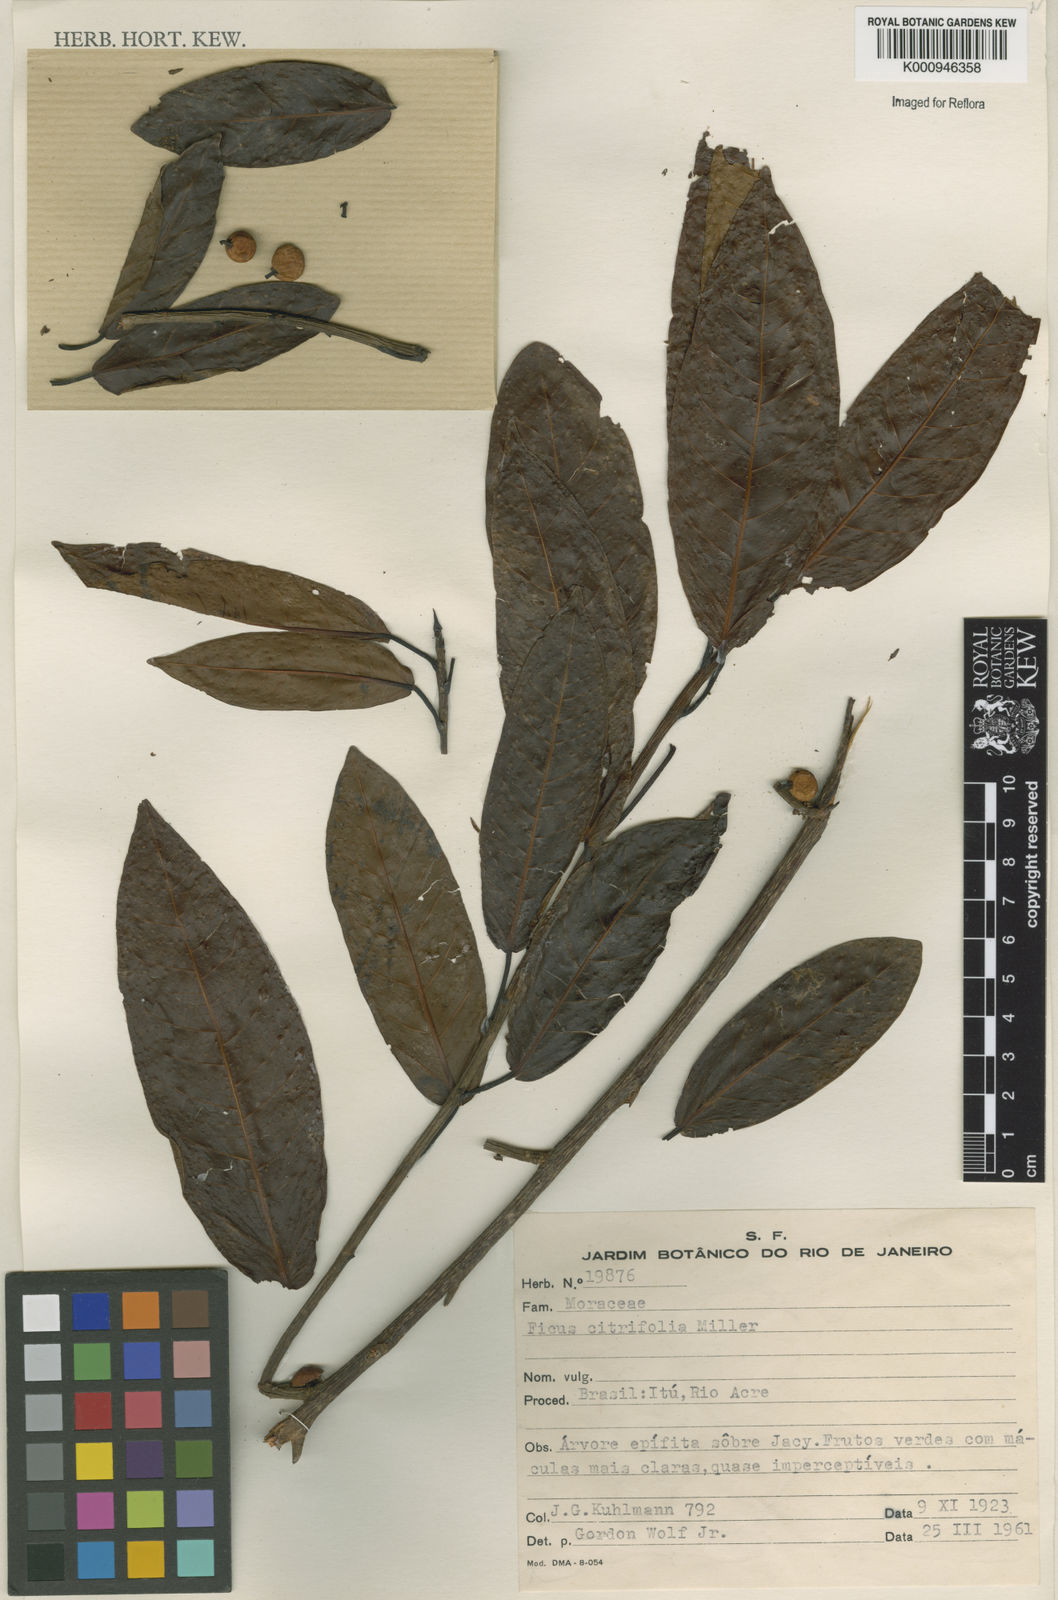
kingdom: Plantae
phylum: Tracheophyta
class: Magnoliopsida
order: Rosales
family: Moraceae
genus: Ficus
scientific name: Ficus citrifolia
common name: Strangler fig
